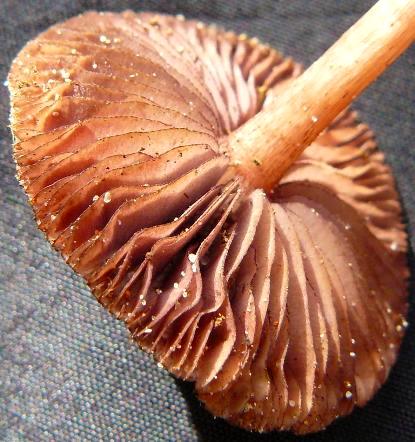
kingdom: Fungi
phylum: Basidiomycota
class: Agaricomycetes
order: Agaricales
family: Mycenaceae
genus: Mycena
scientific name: Mycena pelianthina
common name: mørkbladet huesvamp
